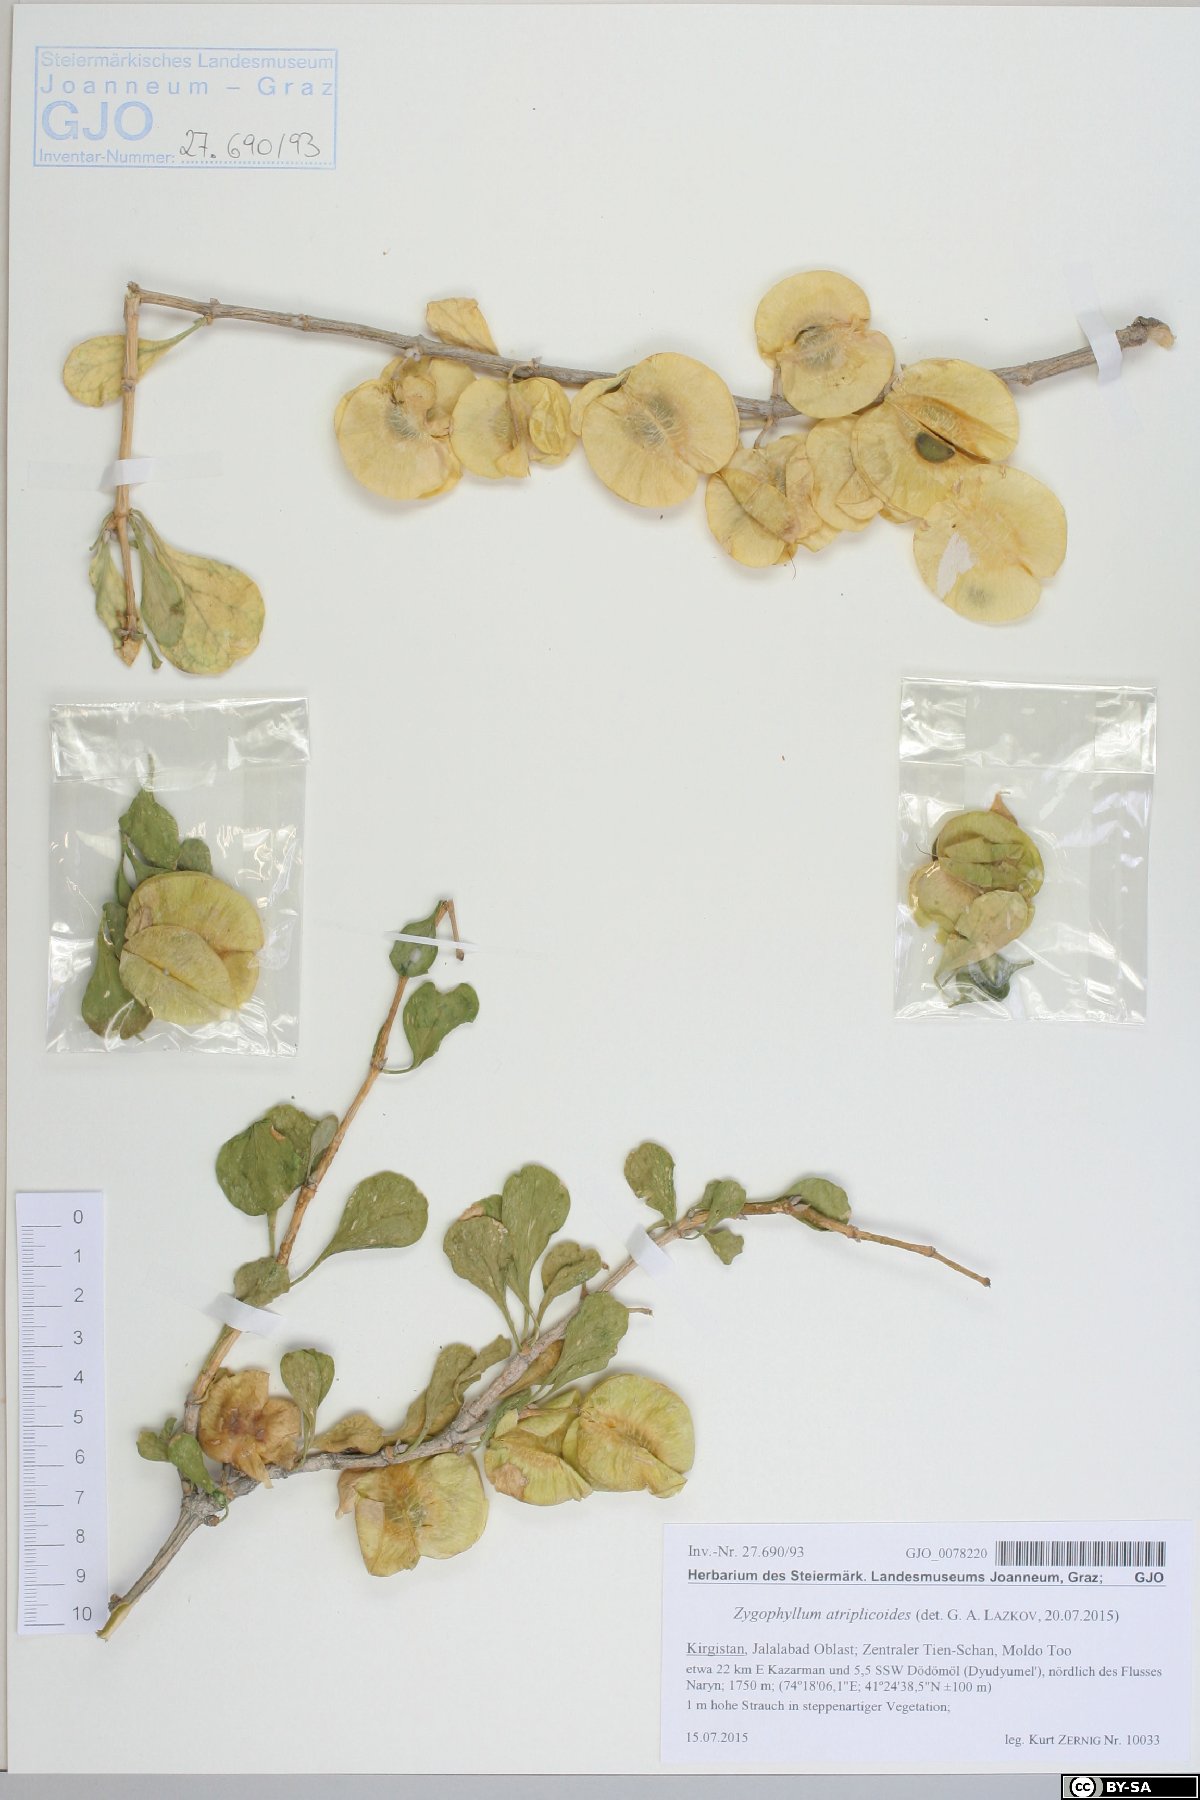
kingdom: Plantae
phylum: Tracheophyta
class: Magnoliopsida
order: Zygophyllales
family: Zygophyllaceae
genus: Zygophyllum
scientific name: Zygophyllum atriplicoides
